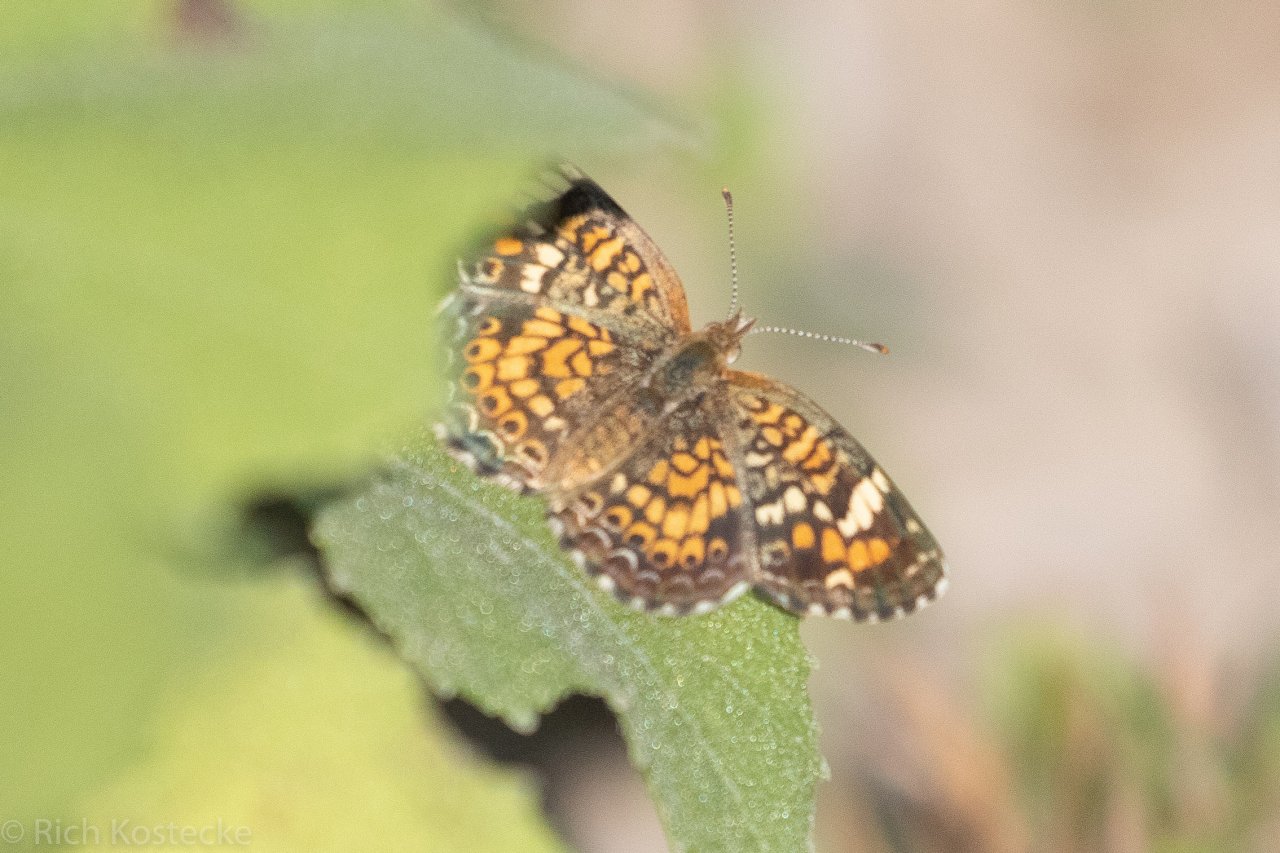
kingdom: Animalia
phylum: Arthropoda
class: Insecta
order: Lepidoptera
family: Nymphalidae
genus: Phyciodes
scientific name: Phyciodes phaon
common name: Phaon Crescent
